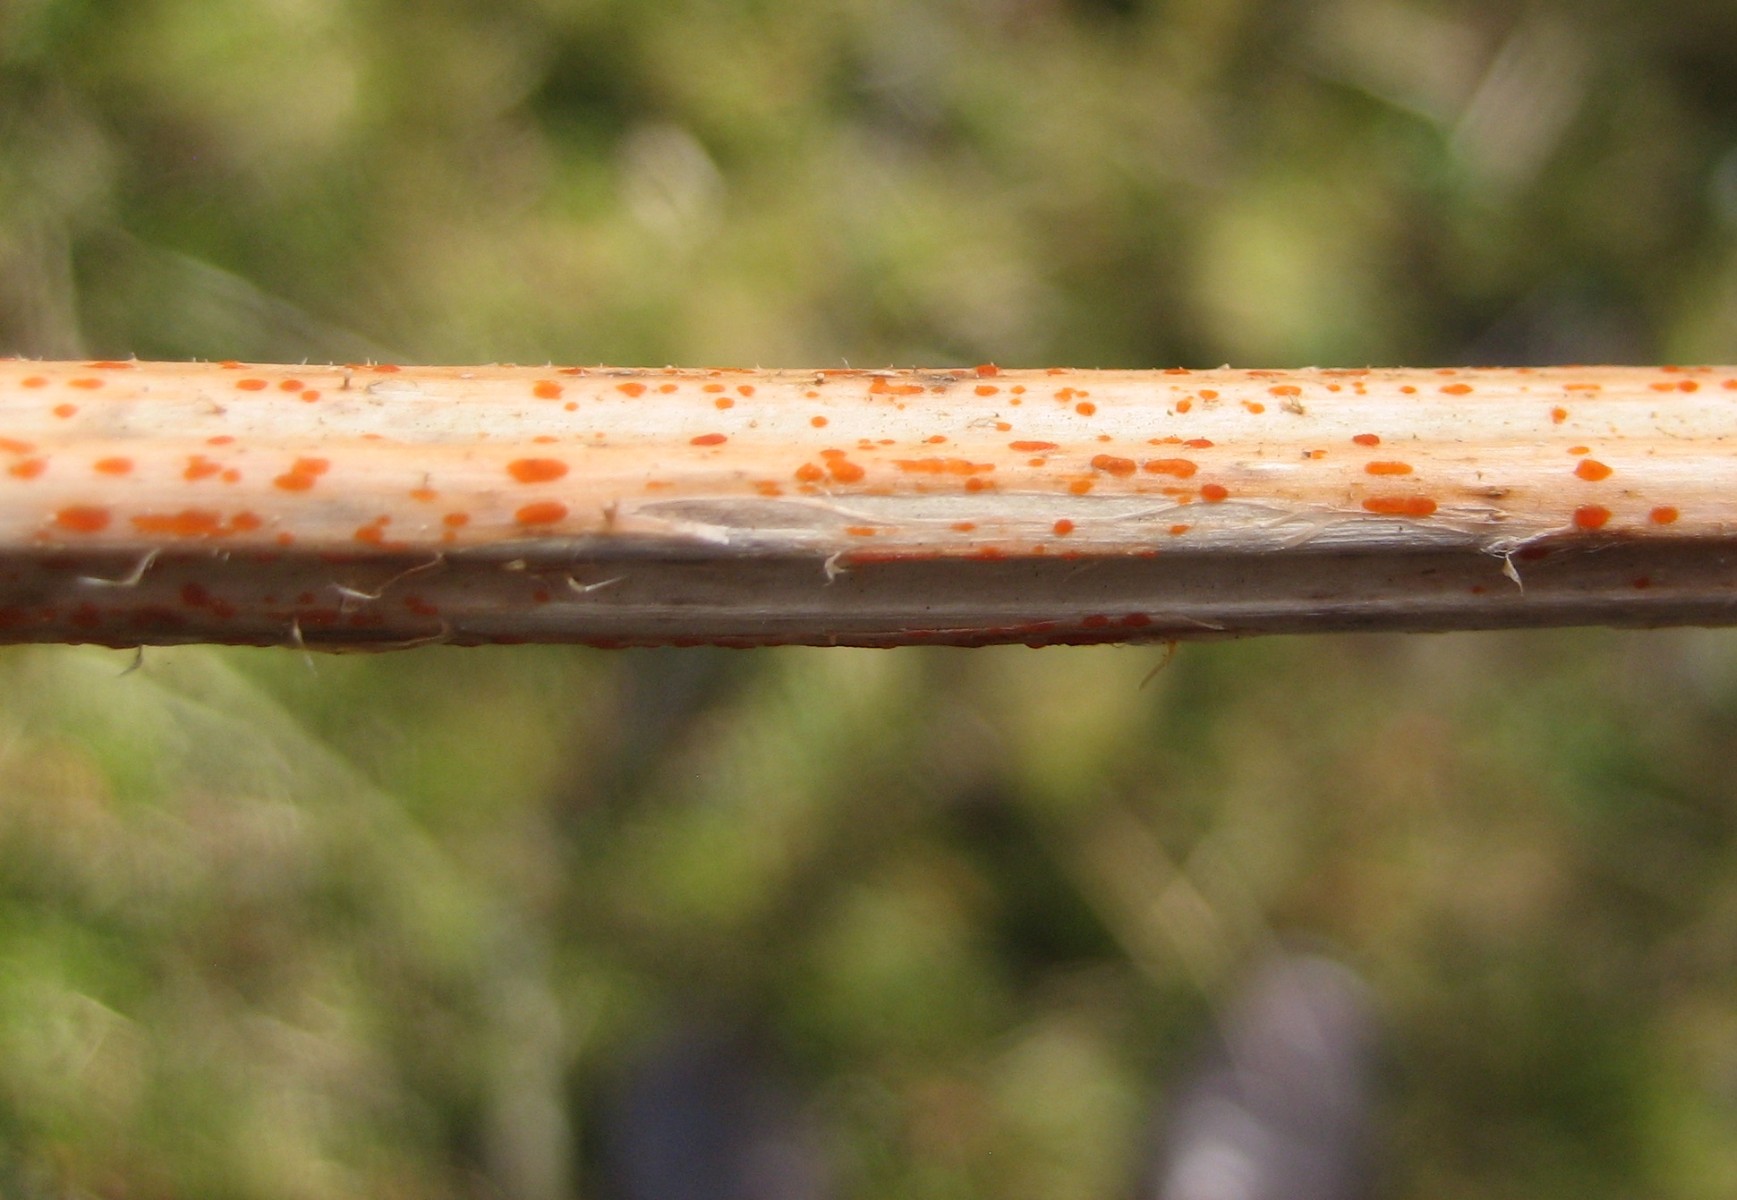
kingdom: Fungi
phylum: Ascomycota
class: Leotiomycetes
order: Helotiales
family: Calloriaceae
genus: Calloria
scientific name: Calloria urticae
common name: nælde-orangeskive
